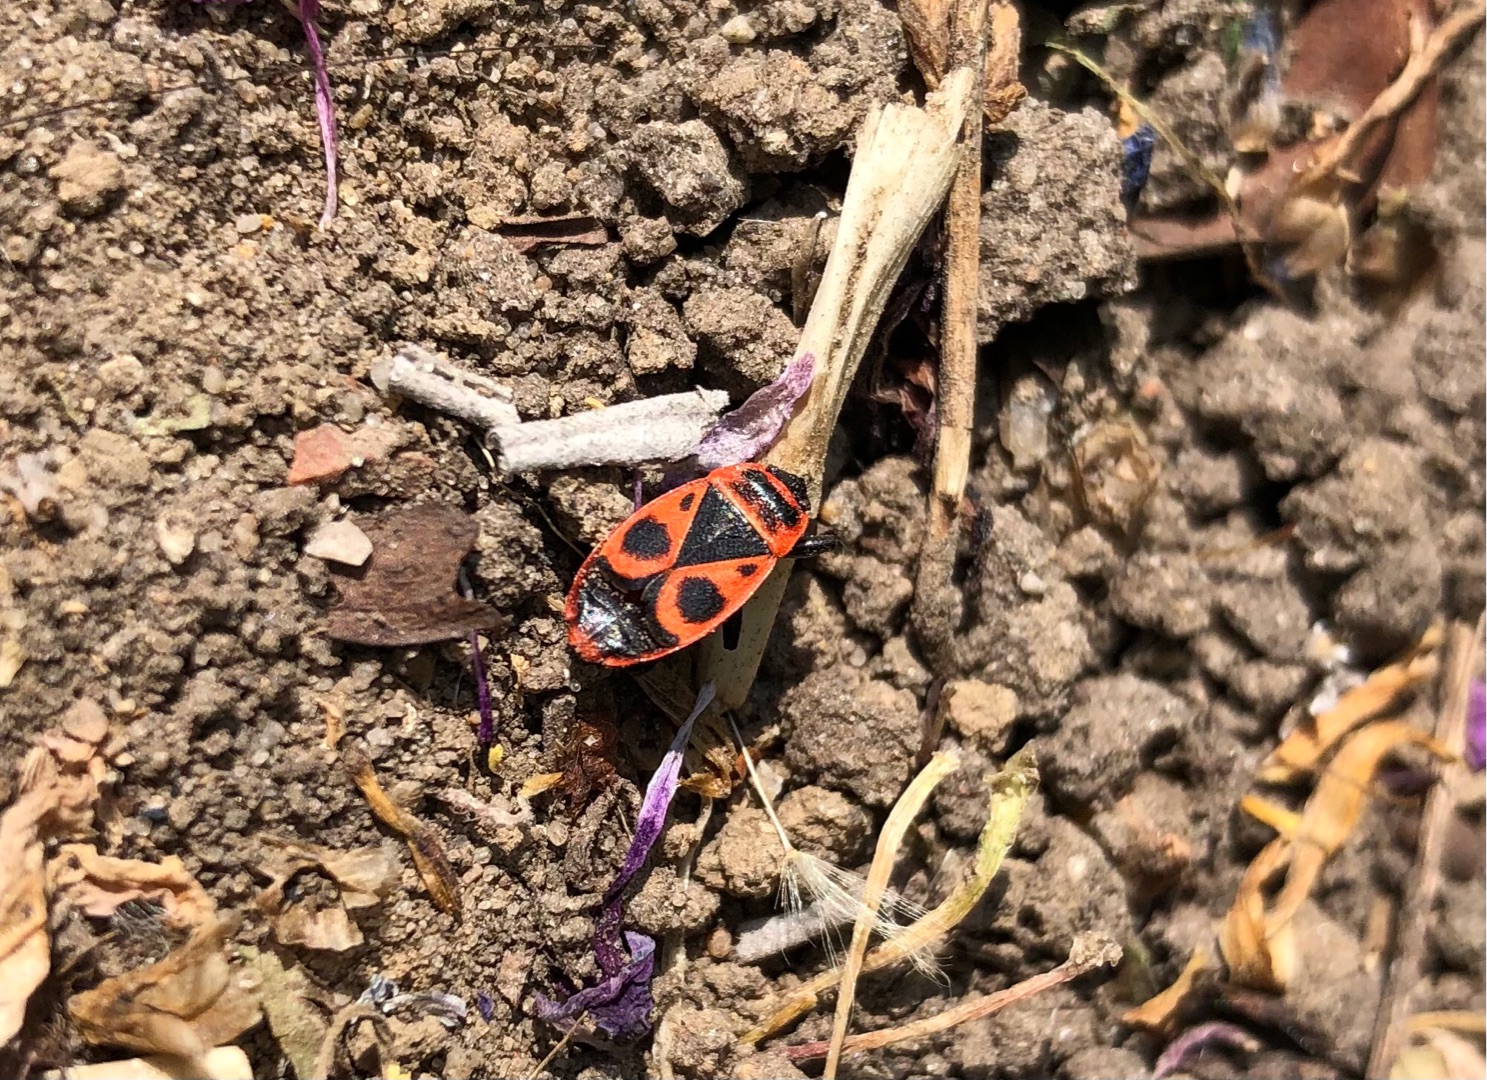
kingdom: Animalia
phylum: Arthropoda
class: Insecta
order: Hemiptera
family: Pyrrhocoridae
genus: Pyrrhocoris
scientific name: Pyrrhocoris apterus
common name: Ildtæge
